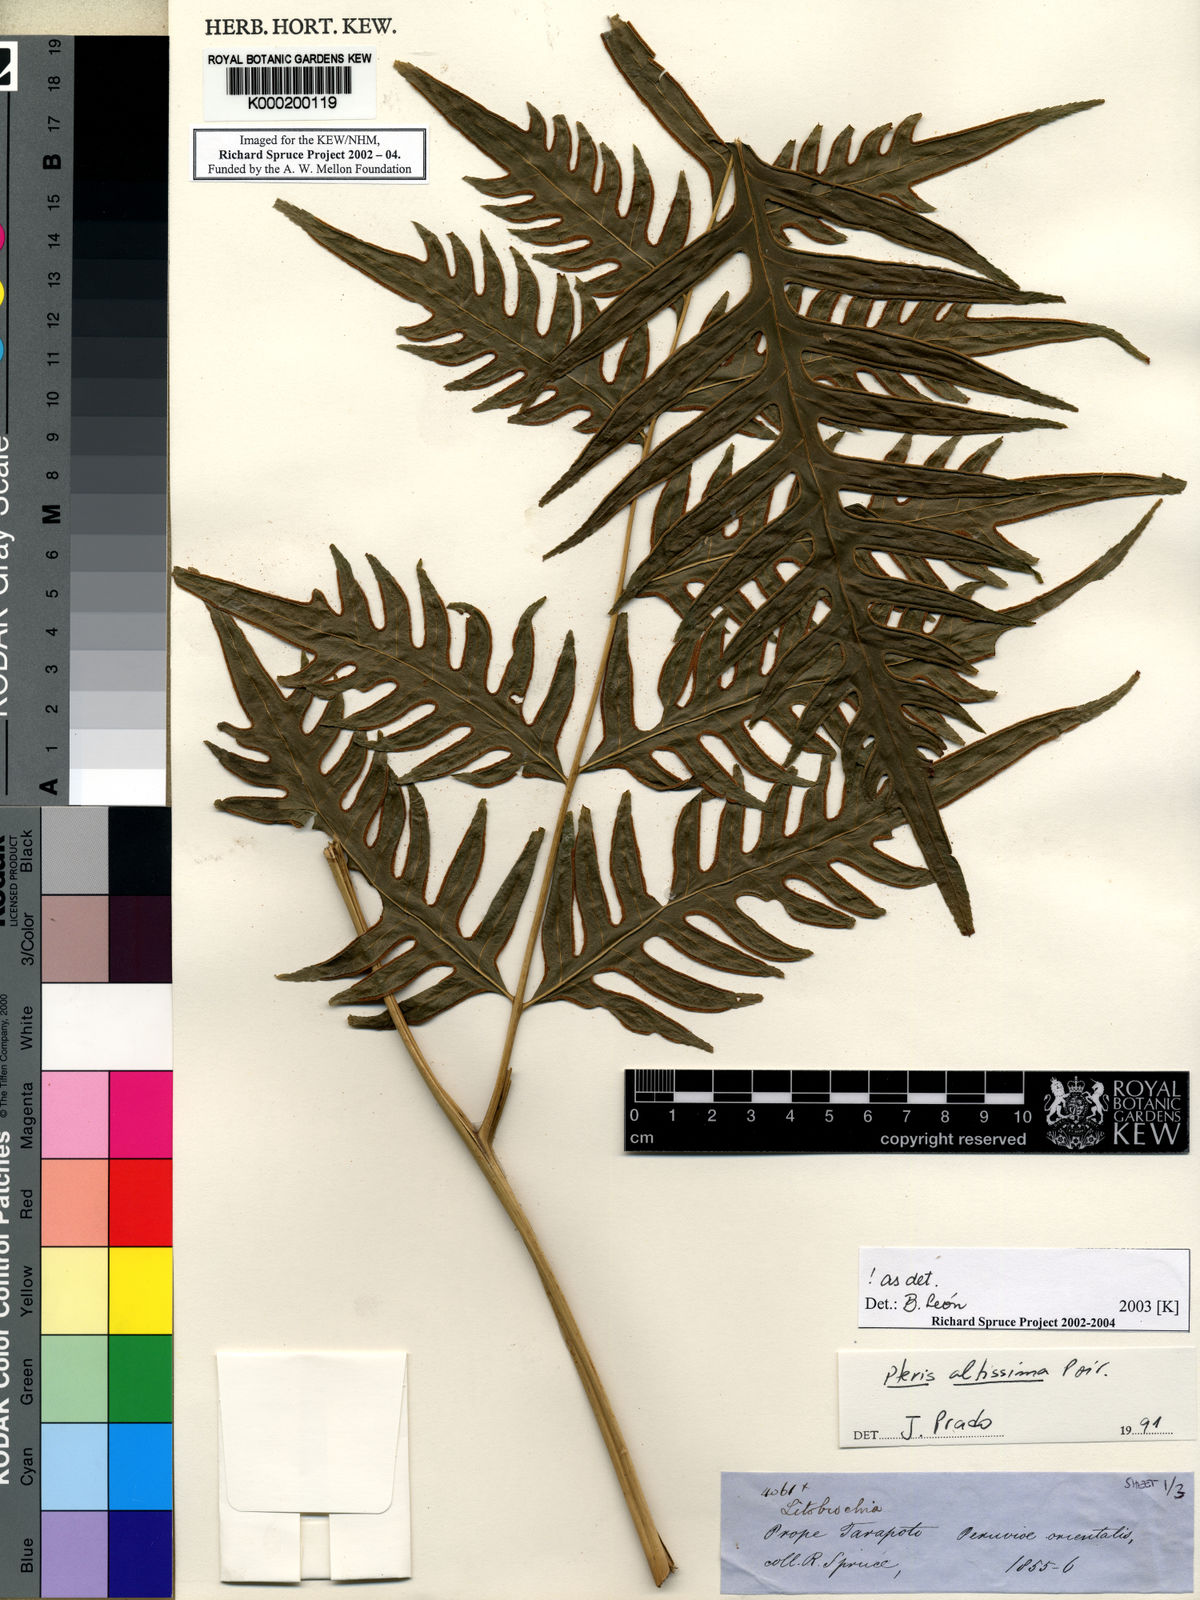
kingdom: Plantae
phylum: Tracheophyta
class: Polypodiopsida
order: Polypodiales
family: Pteridaceae
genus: Pteris
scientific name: Pteris altissima
